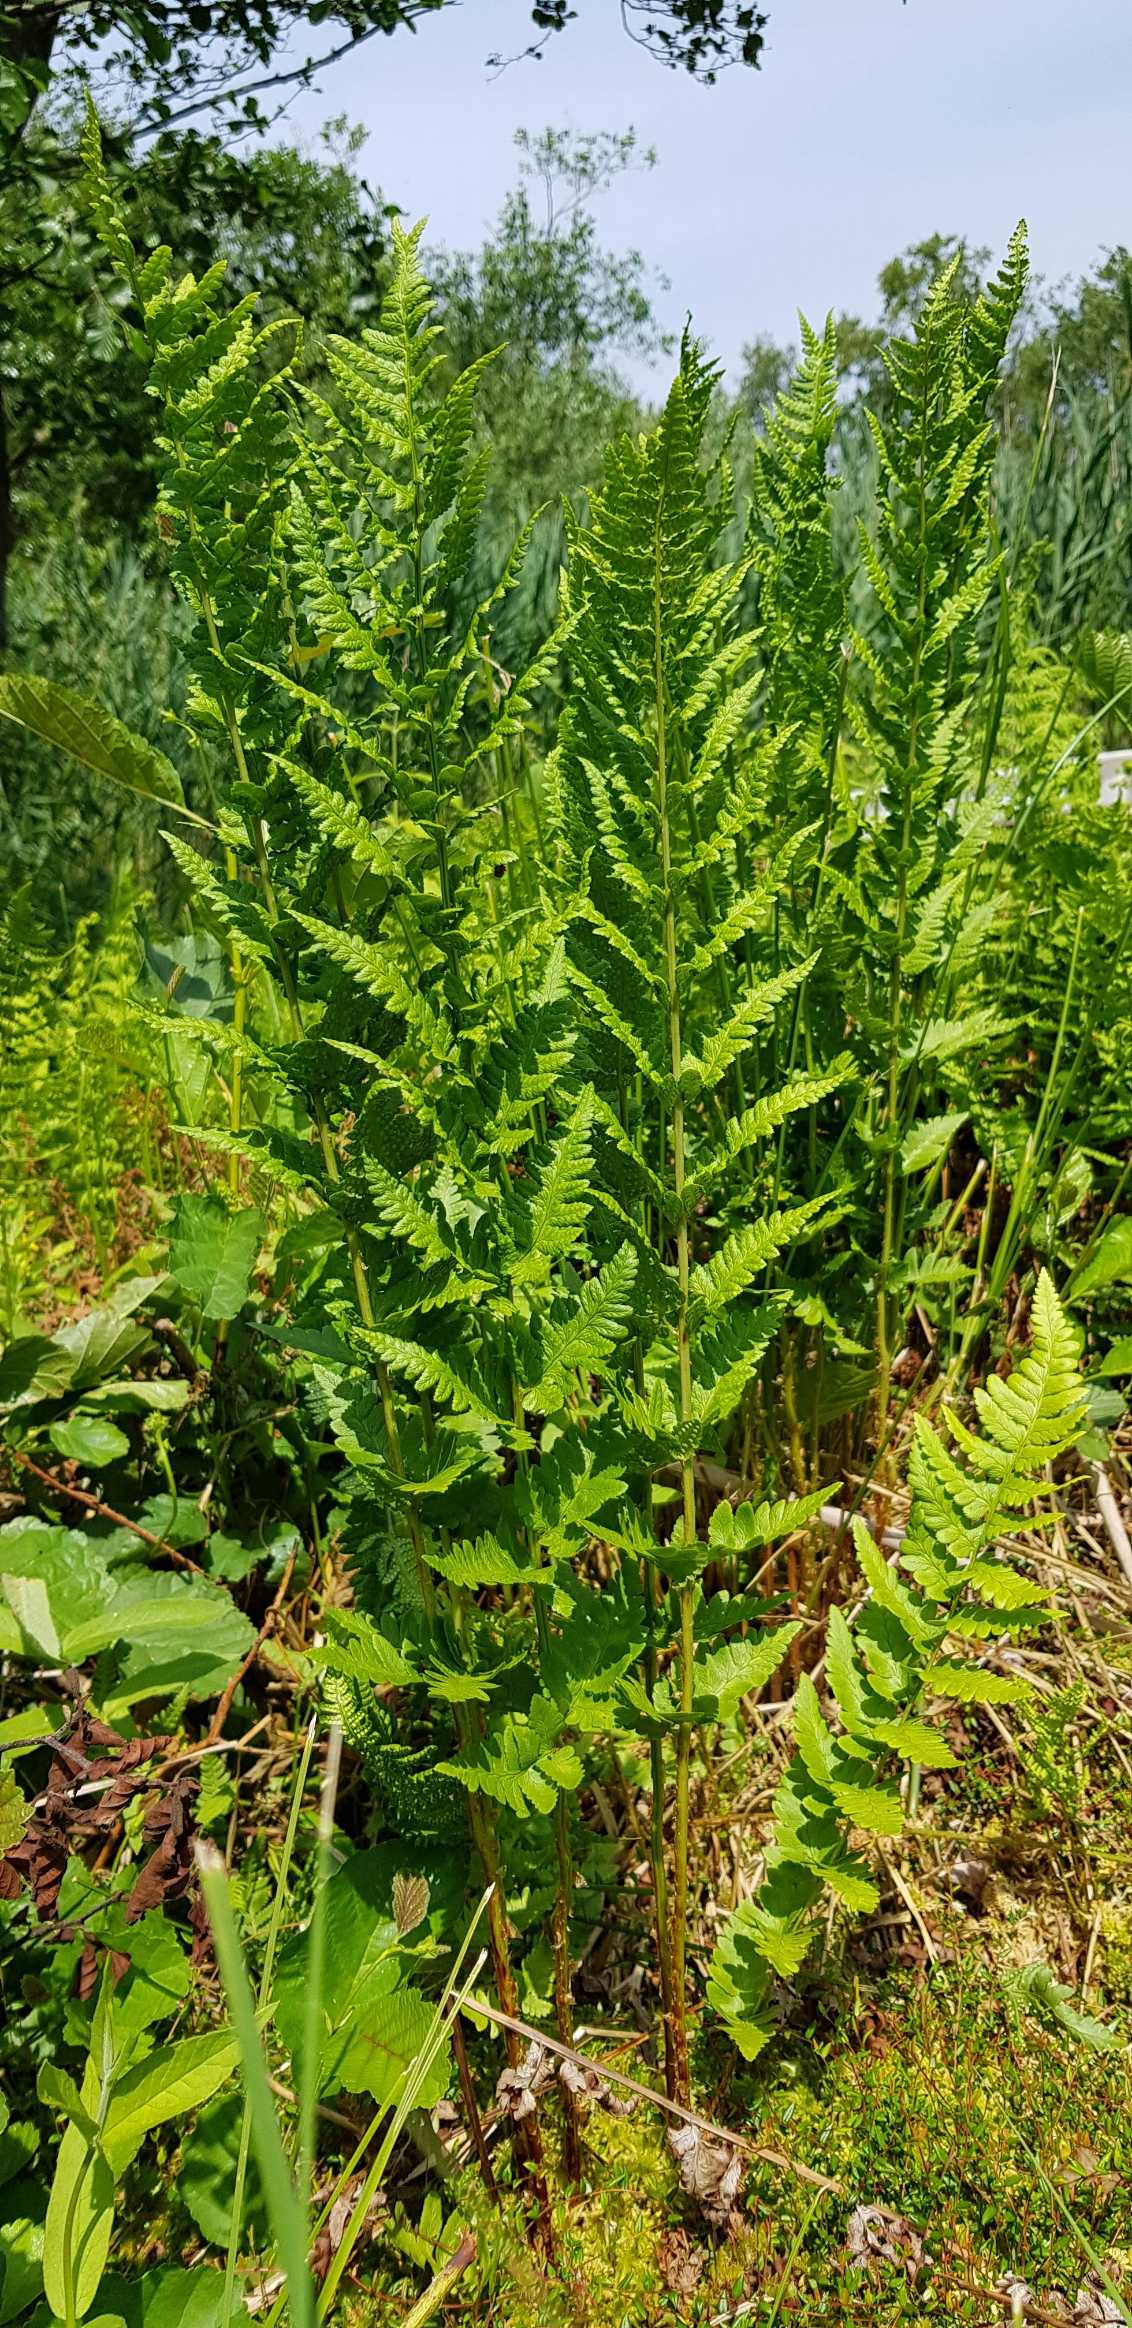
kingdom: Plantae
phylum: Tracheophyta
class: Polypodiopsida
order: Polypodiales
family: Dryopteridaceae
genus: Dryopteris
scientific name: Dryopteris cristata
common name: Butfinnet mangeløv
